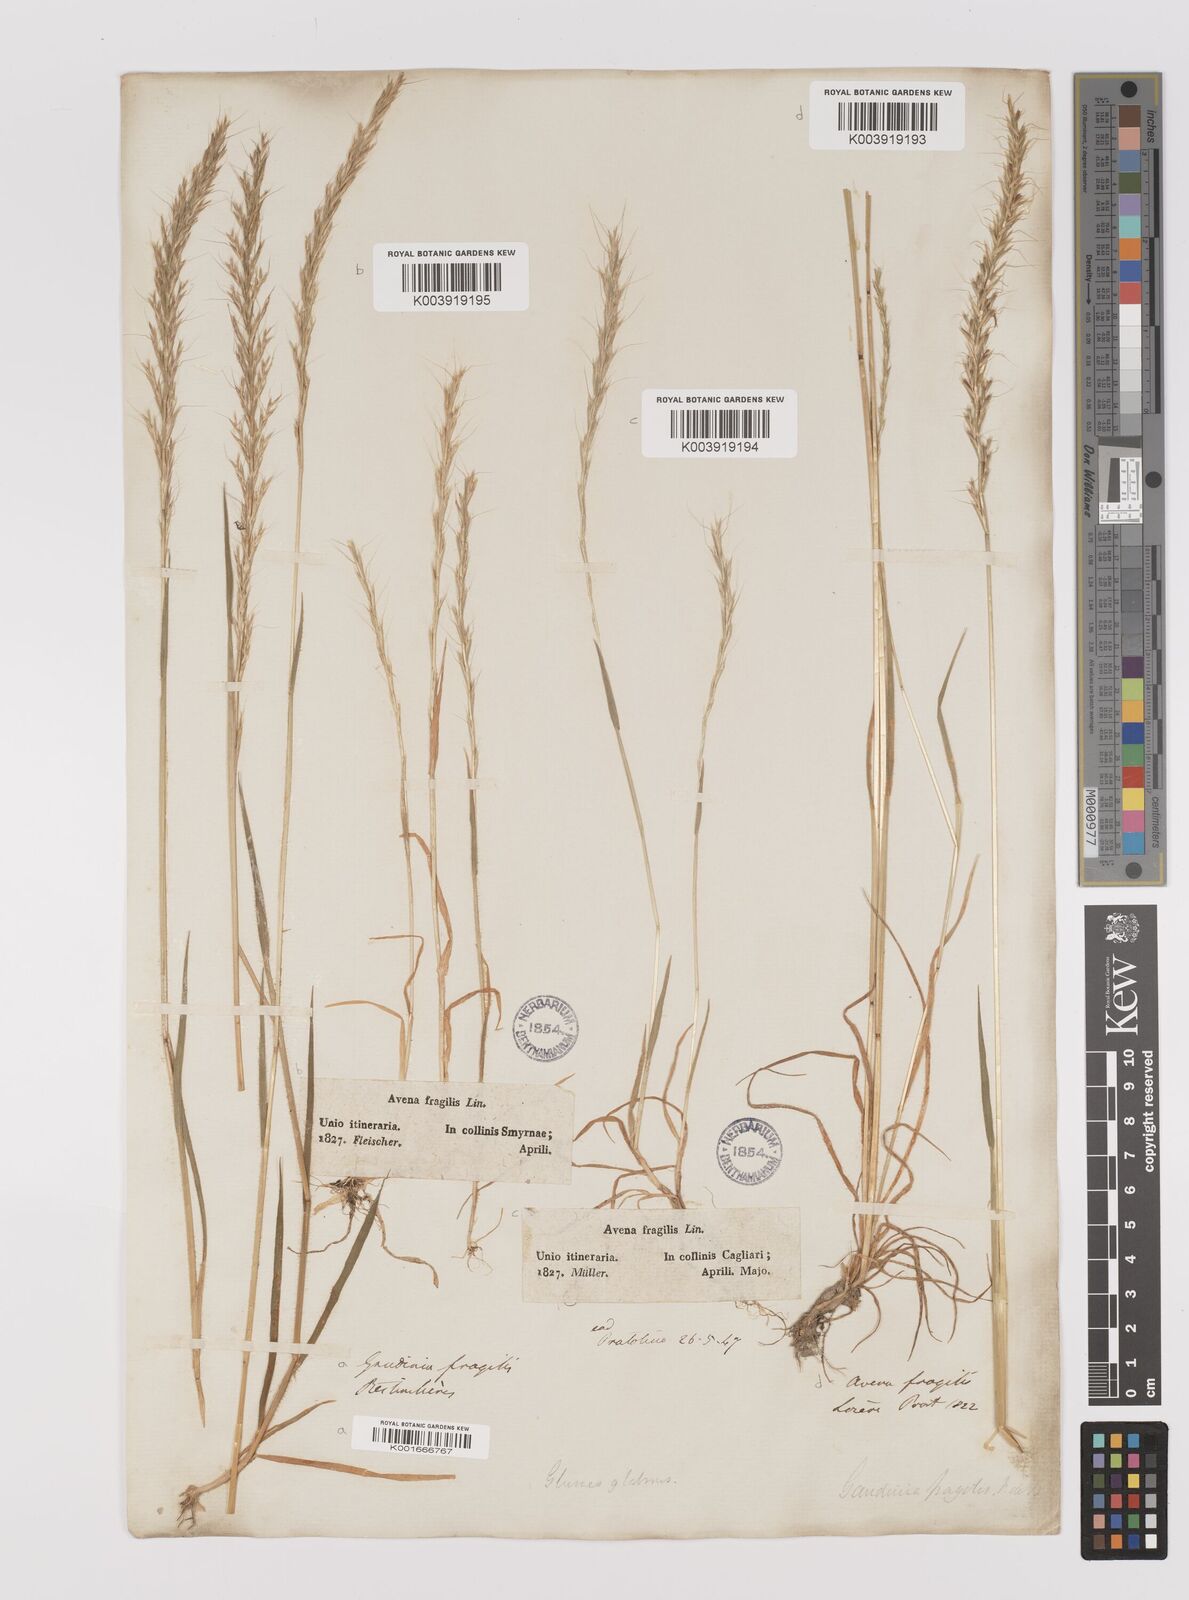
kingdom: Plantae
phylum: Tracheophyta
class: Liliopsida
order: Poales
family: Poaceae
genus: Gaudinia
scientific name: Gaudinia fragilis
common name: French oat-grass
